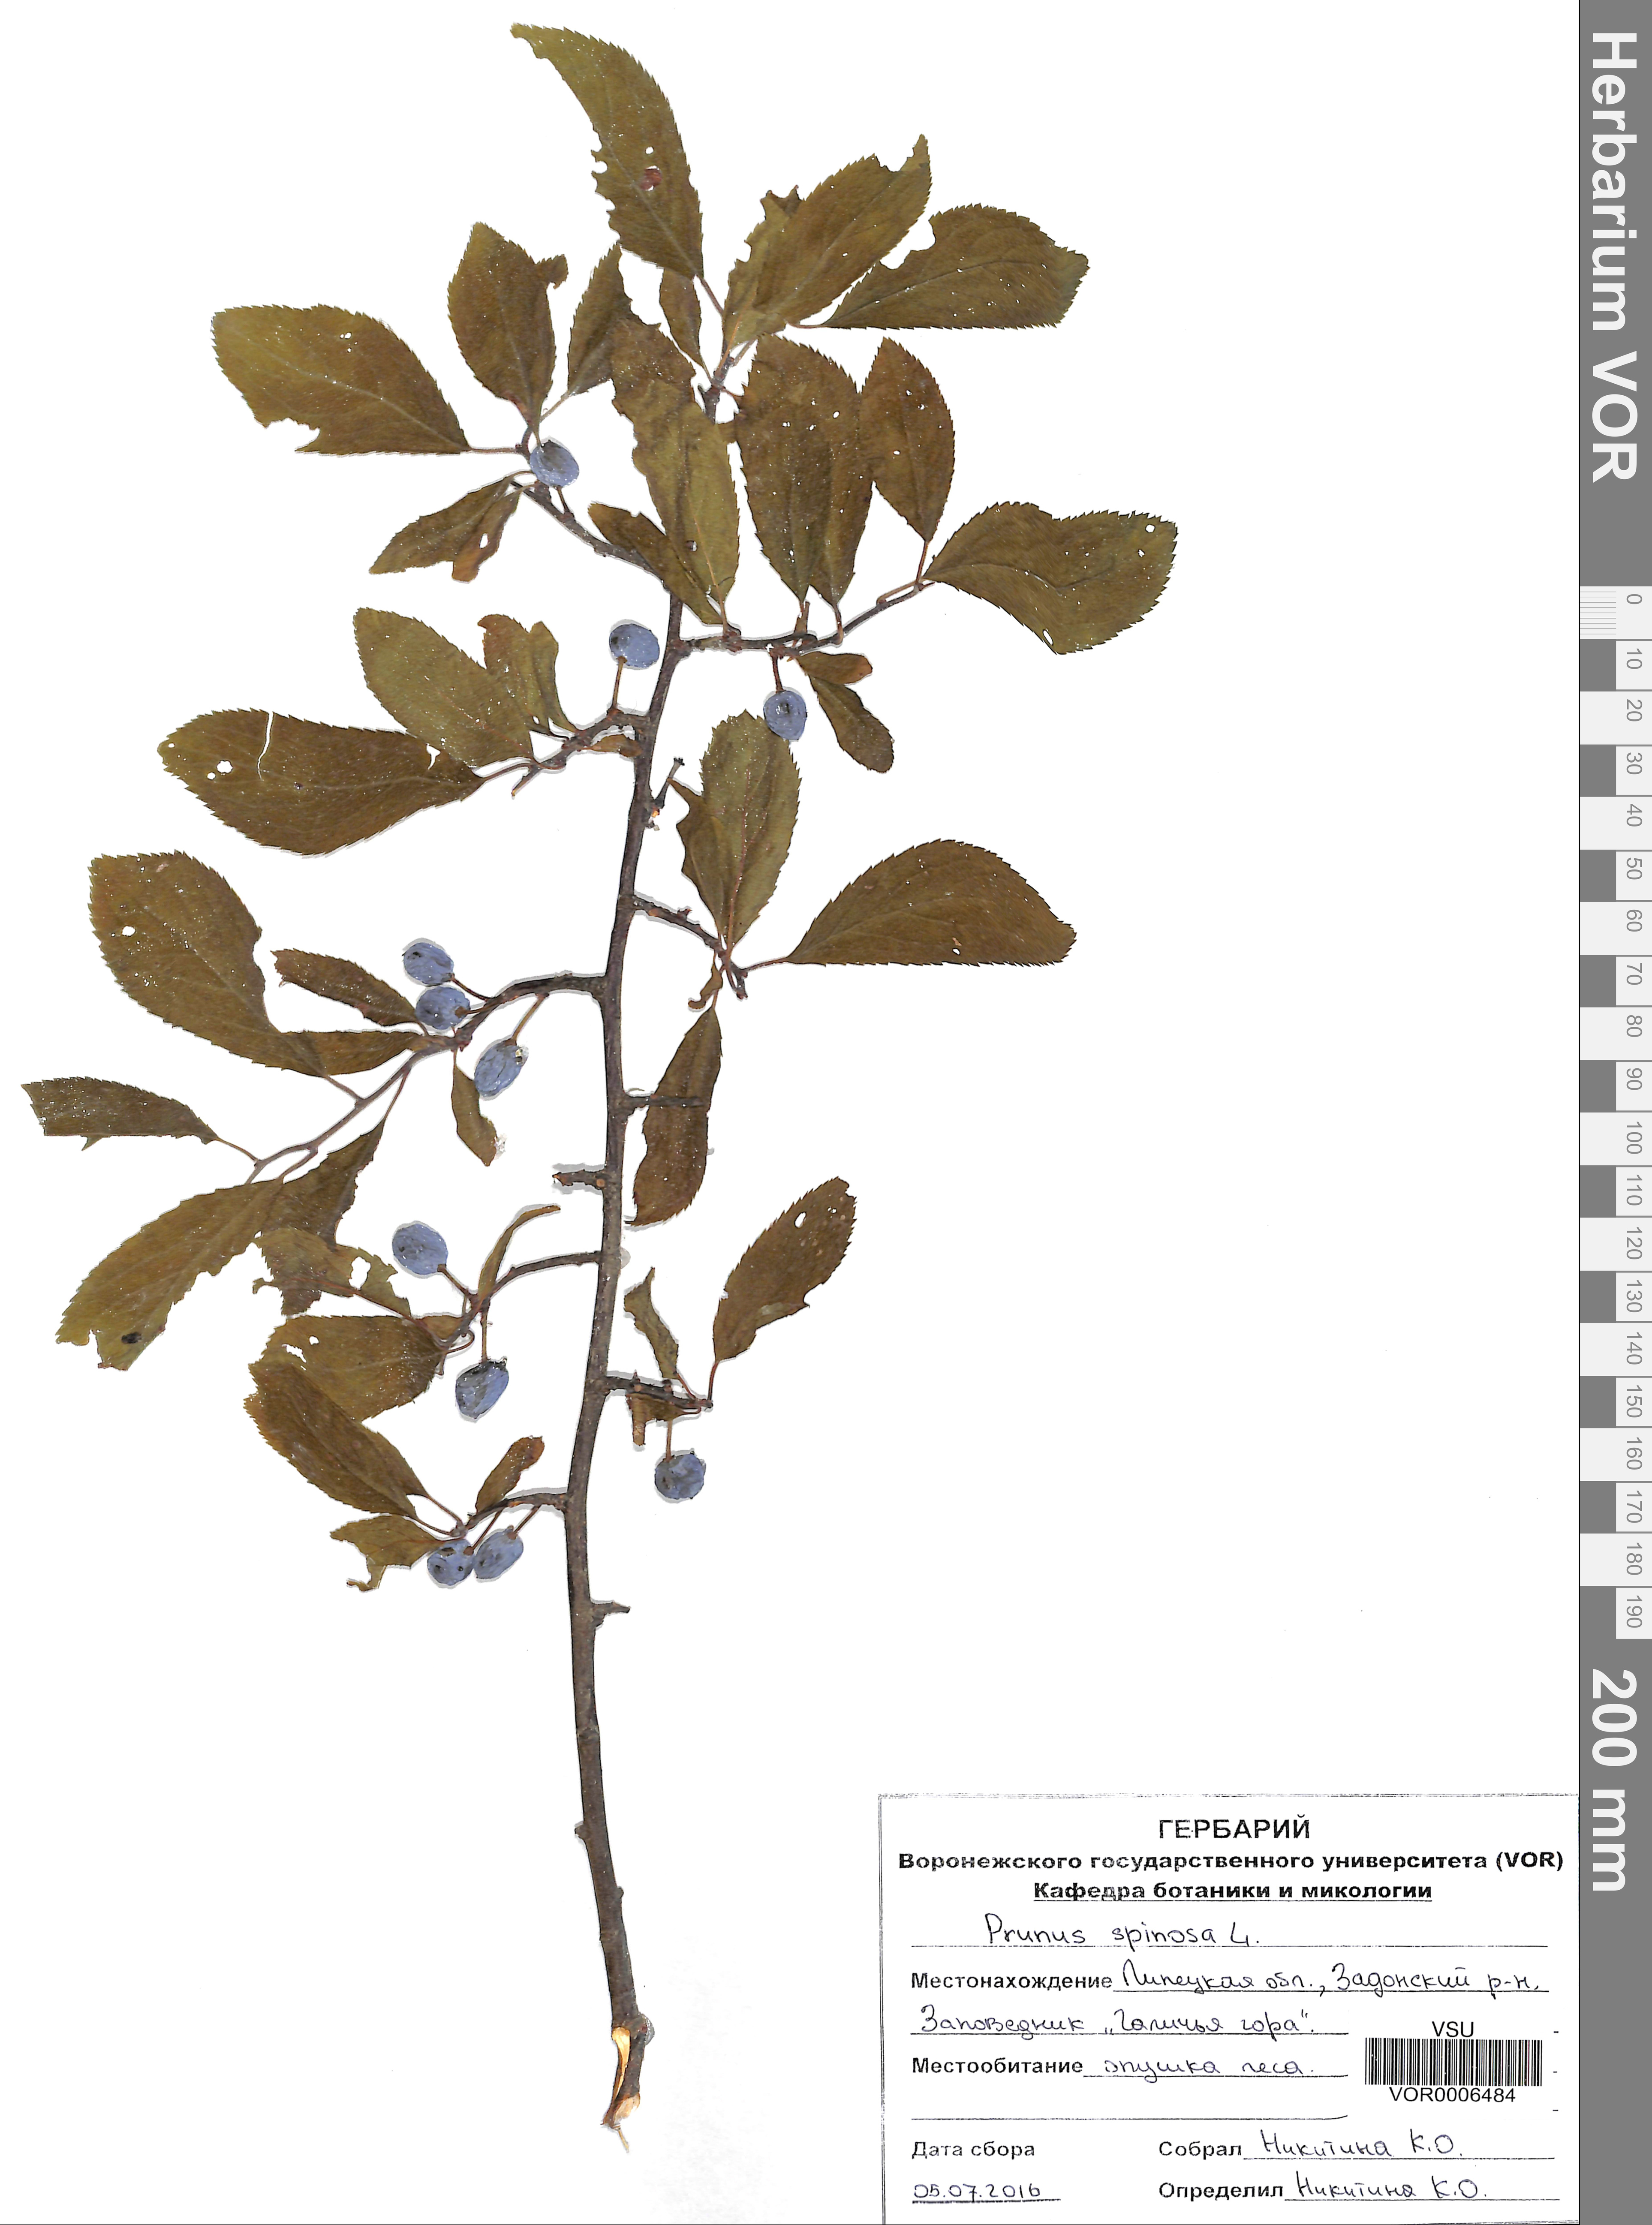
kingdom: Plantae
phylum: Tracheophyta
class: Magnoliopsida
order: Rosales
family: Rosaceae
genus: Prunus
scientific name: Prunus spinosa
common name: Blackthorn
